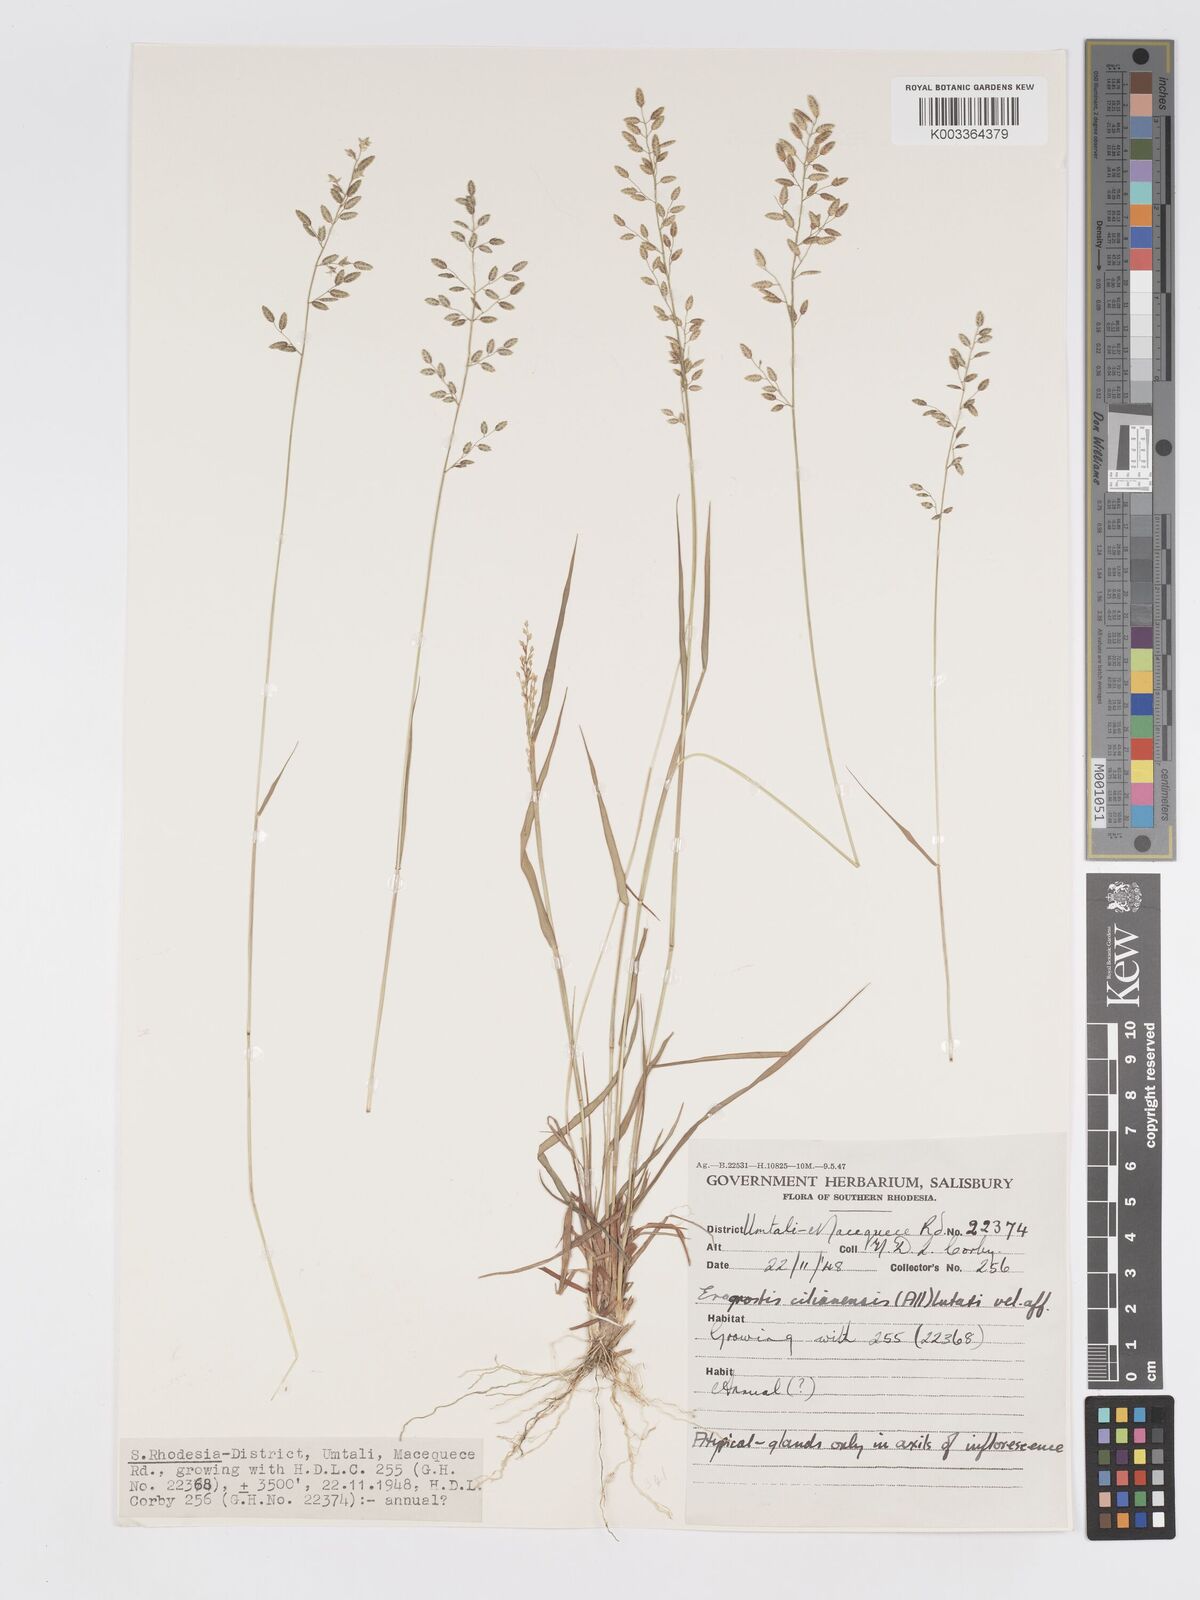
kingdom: Plantae
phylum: Tracheophyta
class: Liliopsida
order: Poales
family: Poaceae
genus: Eragrostis
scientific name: Eragrostis racemosa
